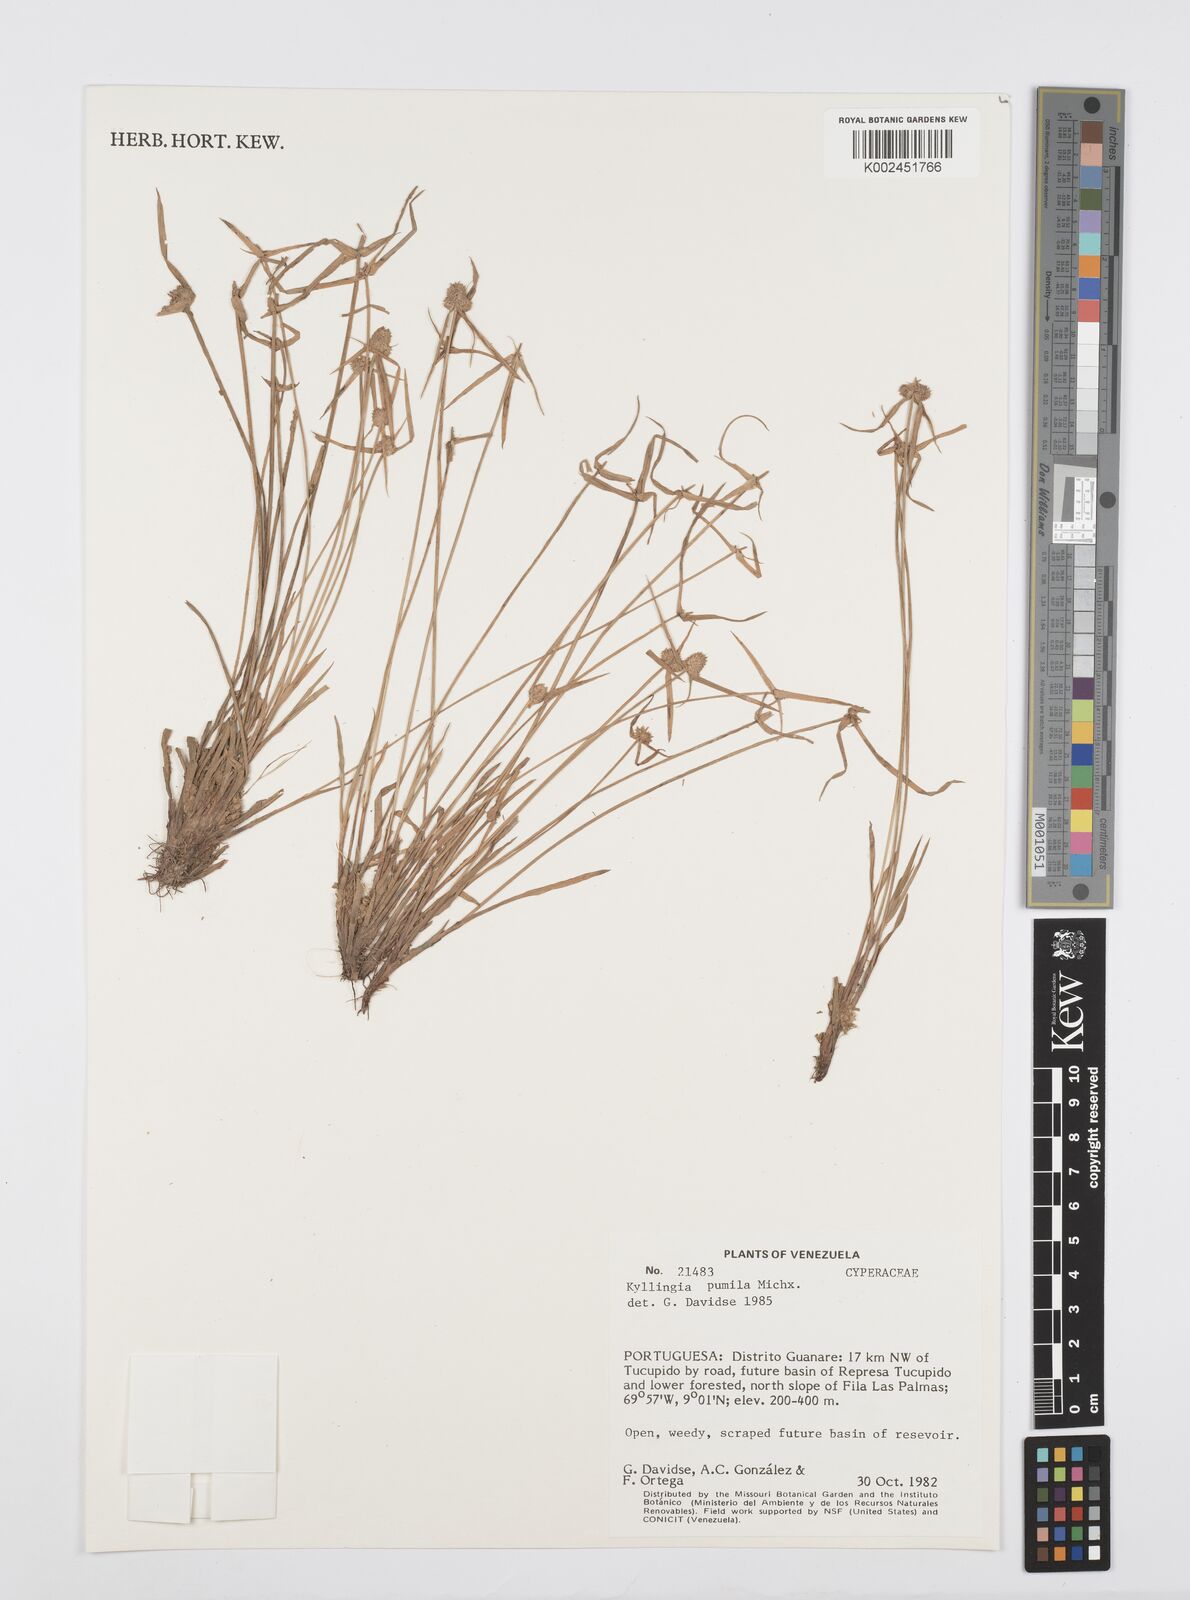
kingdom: Plantae
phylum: Tracheophyta
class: Liliopsida
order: Poales
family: Cyperaceae
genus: Cyperus
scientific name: Cyperus
